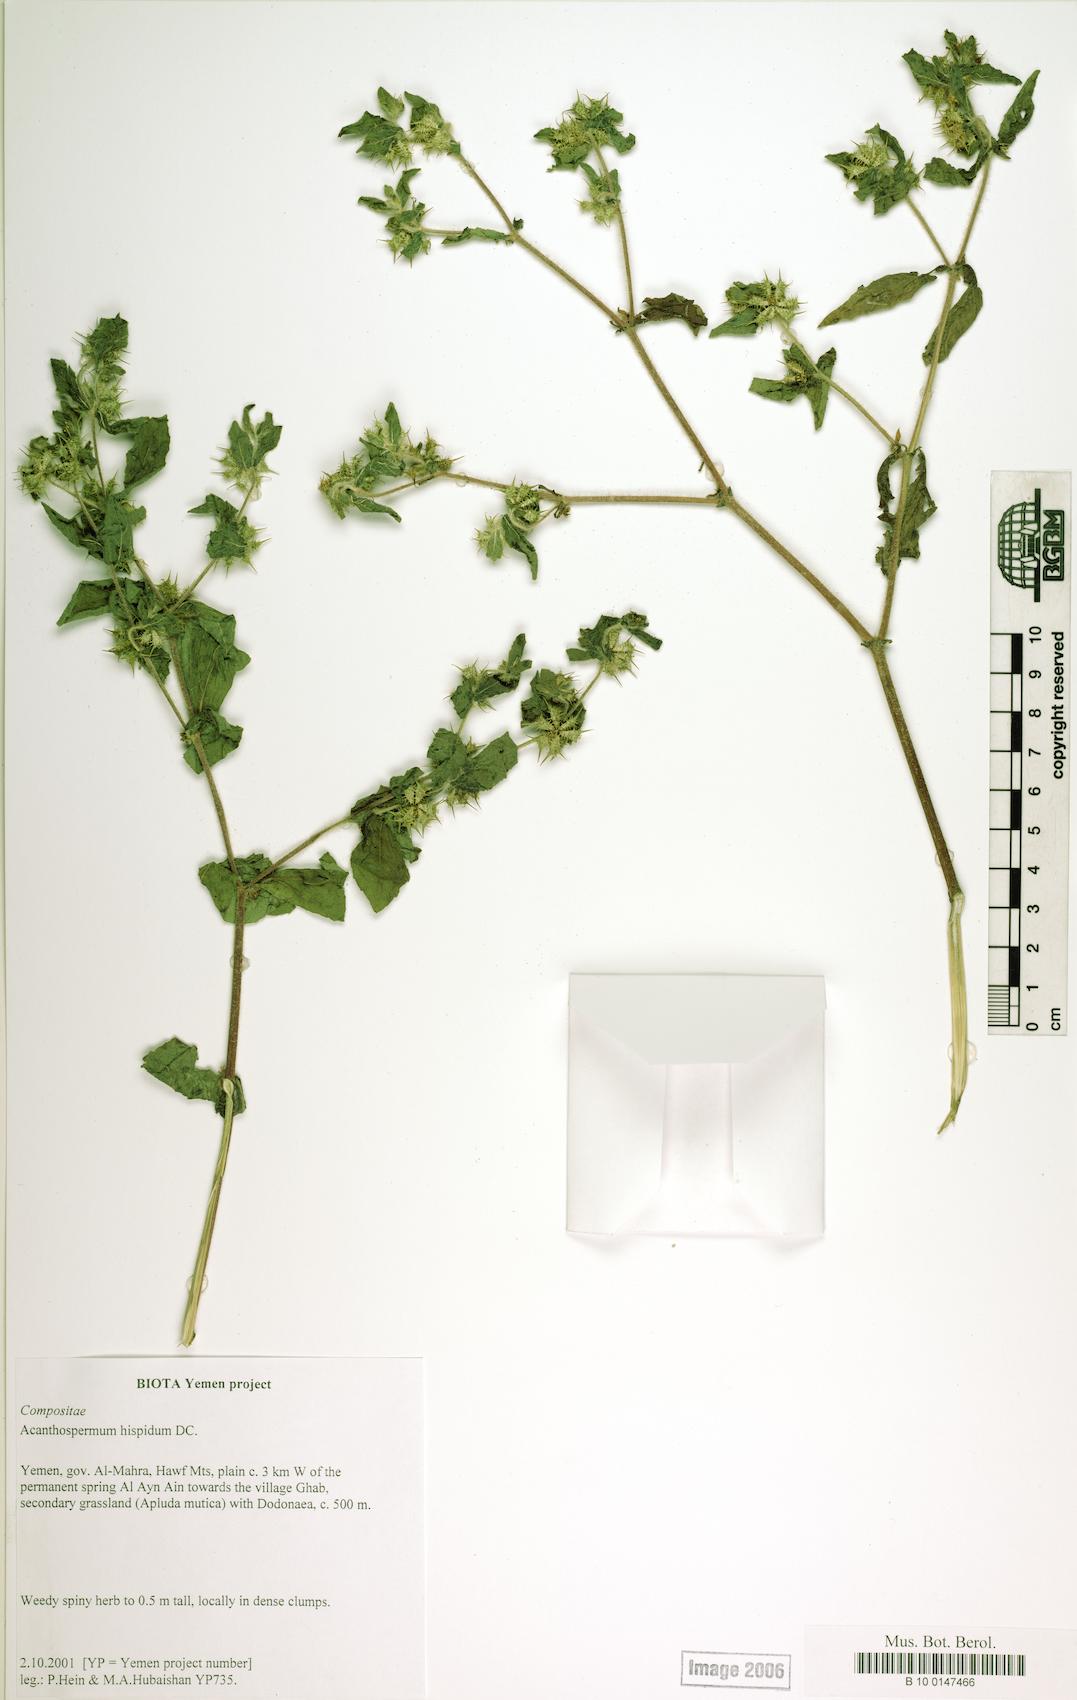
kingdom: Plantae
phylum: Tracheophyta
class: Magnoliopsida
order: Asterales
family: Asteraceae
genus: Acanthospermum
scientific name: Acanthospermum hispidum
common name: Hispid starbur
